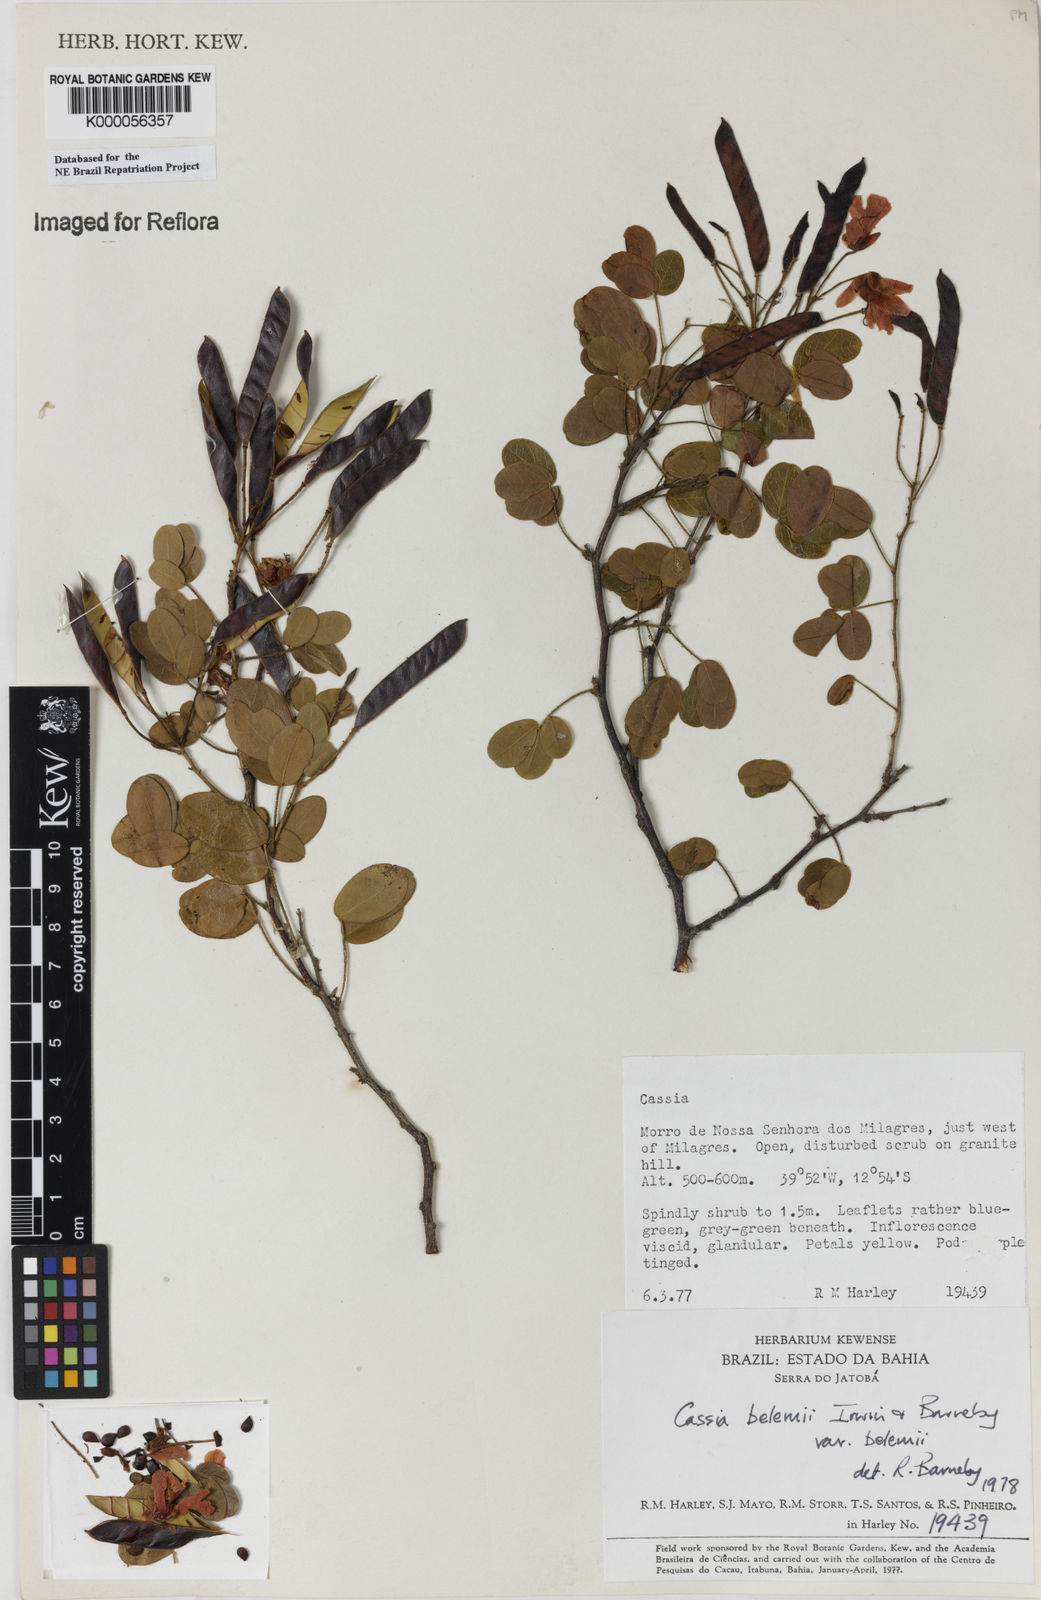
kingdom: Plantae
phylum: Tracheophyta
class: Magnoliopsida
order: Fabales
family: Fabaceae
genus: Chamaecrista
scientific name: Chamaecrista belemii
